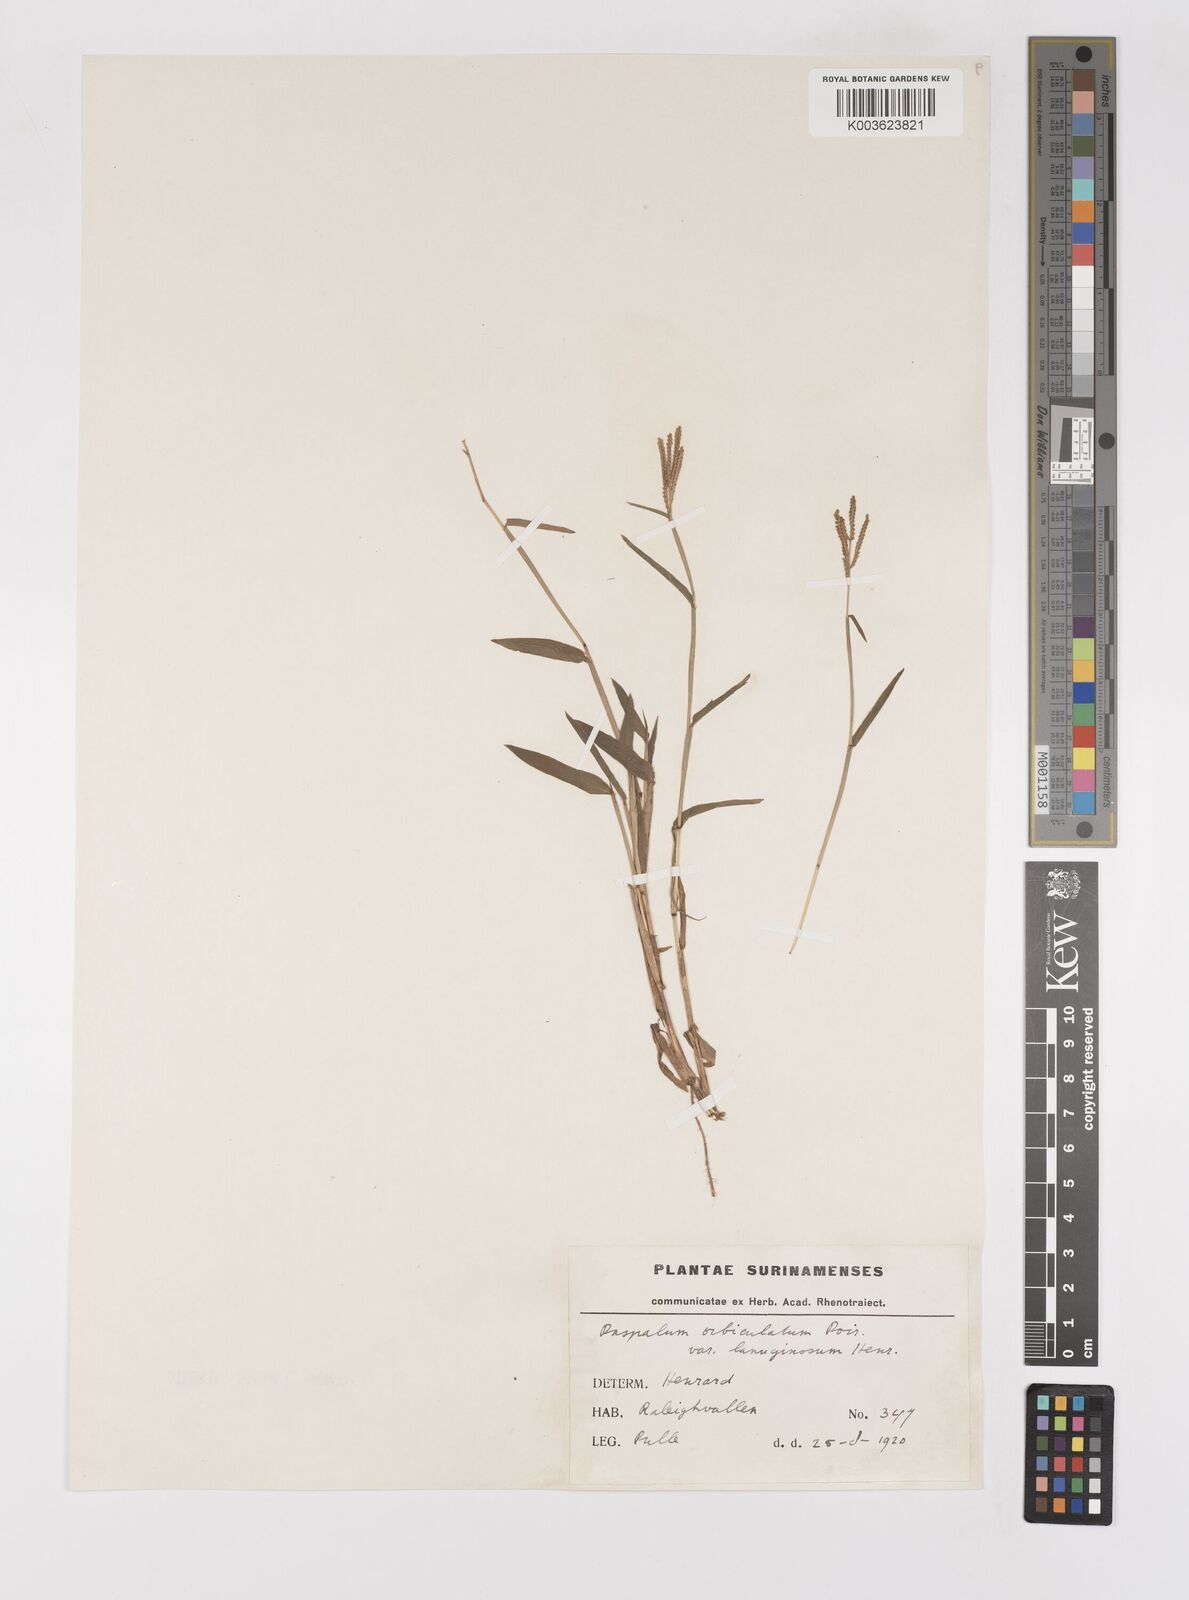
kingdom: Plantae
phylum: Tracheophyta
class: Liliopsida
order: Poales
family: Poaceae
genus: Paspalum
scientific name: Paspalum orbiculatum
